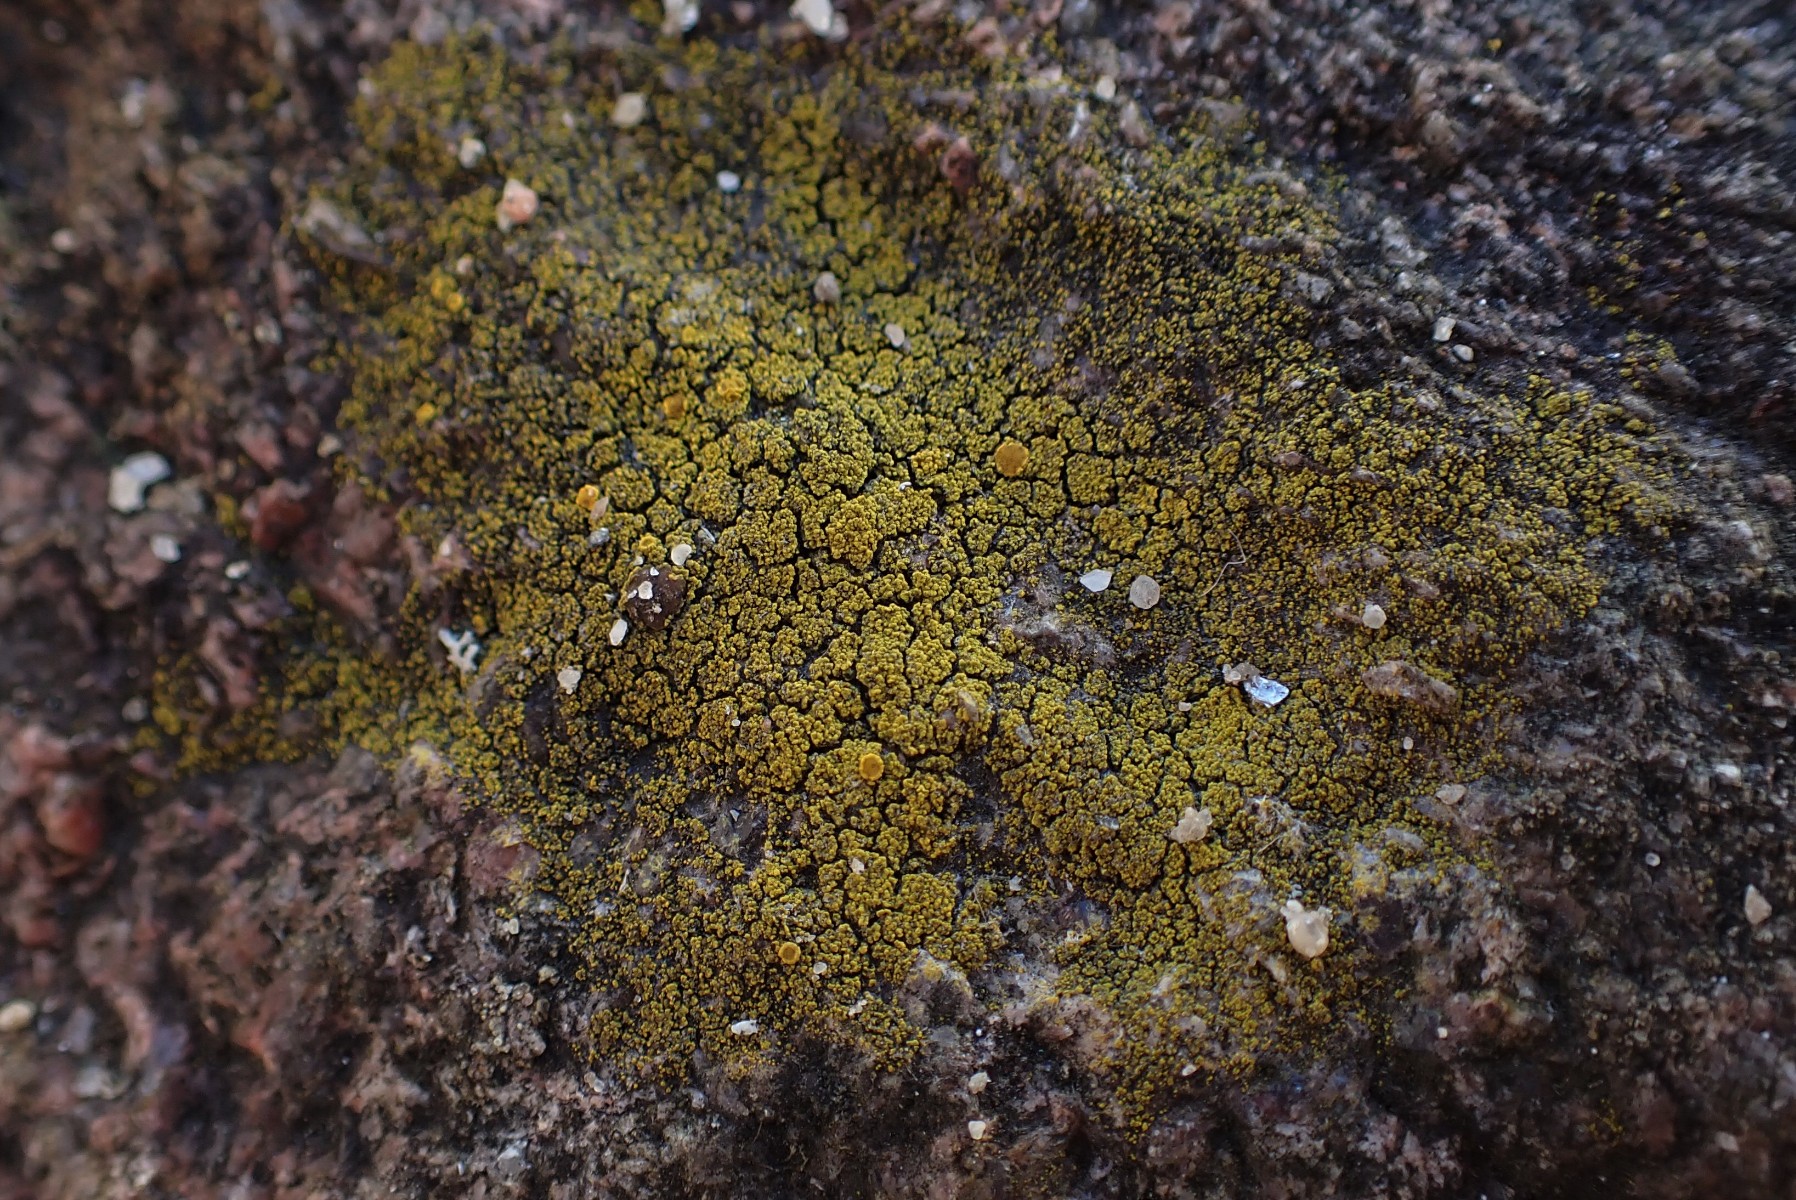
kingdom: Fungi
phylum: Ascomycota
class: Candelariomycetes
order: Candelariales
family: Candelariaceae
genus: Candelariella
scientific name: Candelariella vitellina
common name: almindelig æggeblommelav
